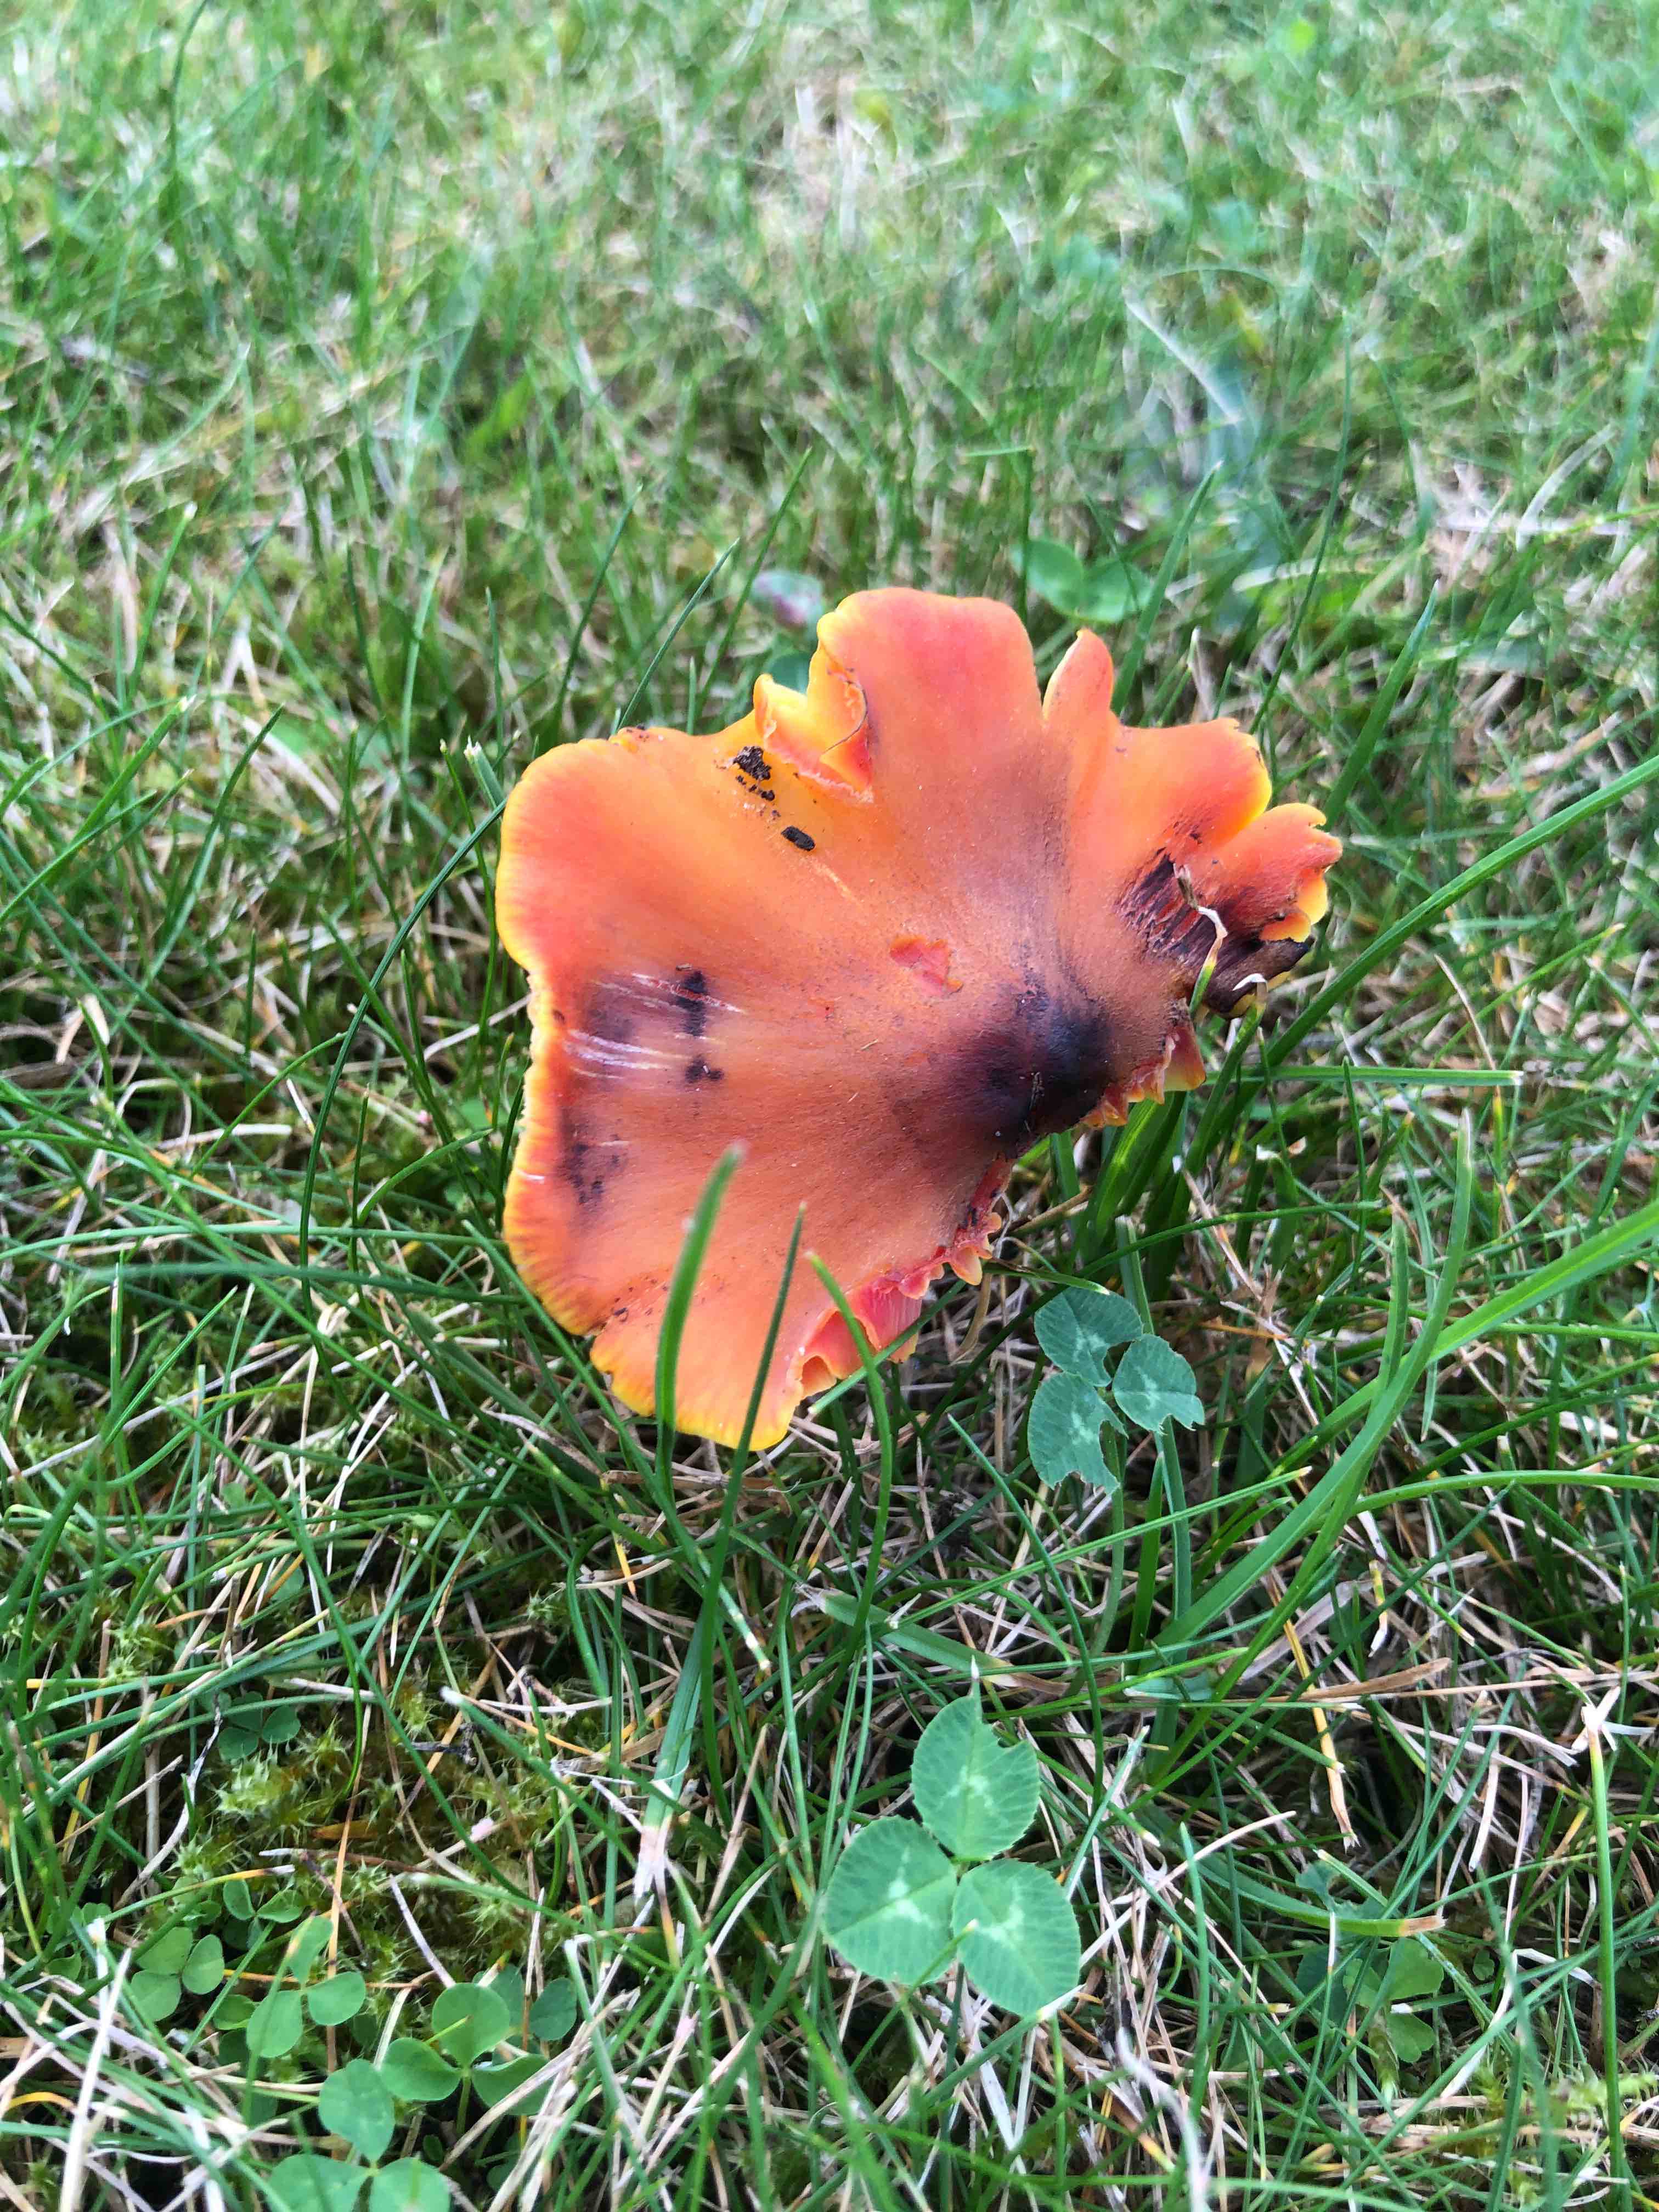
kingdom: Fungi
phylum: Basidiomycota
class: Agaricomycetes
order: Agaricales
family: Hygrophoraceae
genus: Hygrocybe
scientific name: Hygrocybe conica
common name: kegle-vokshat
